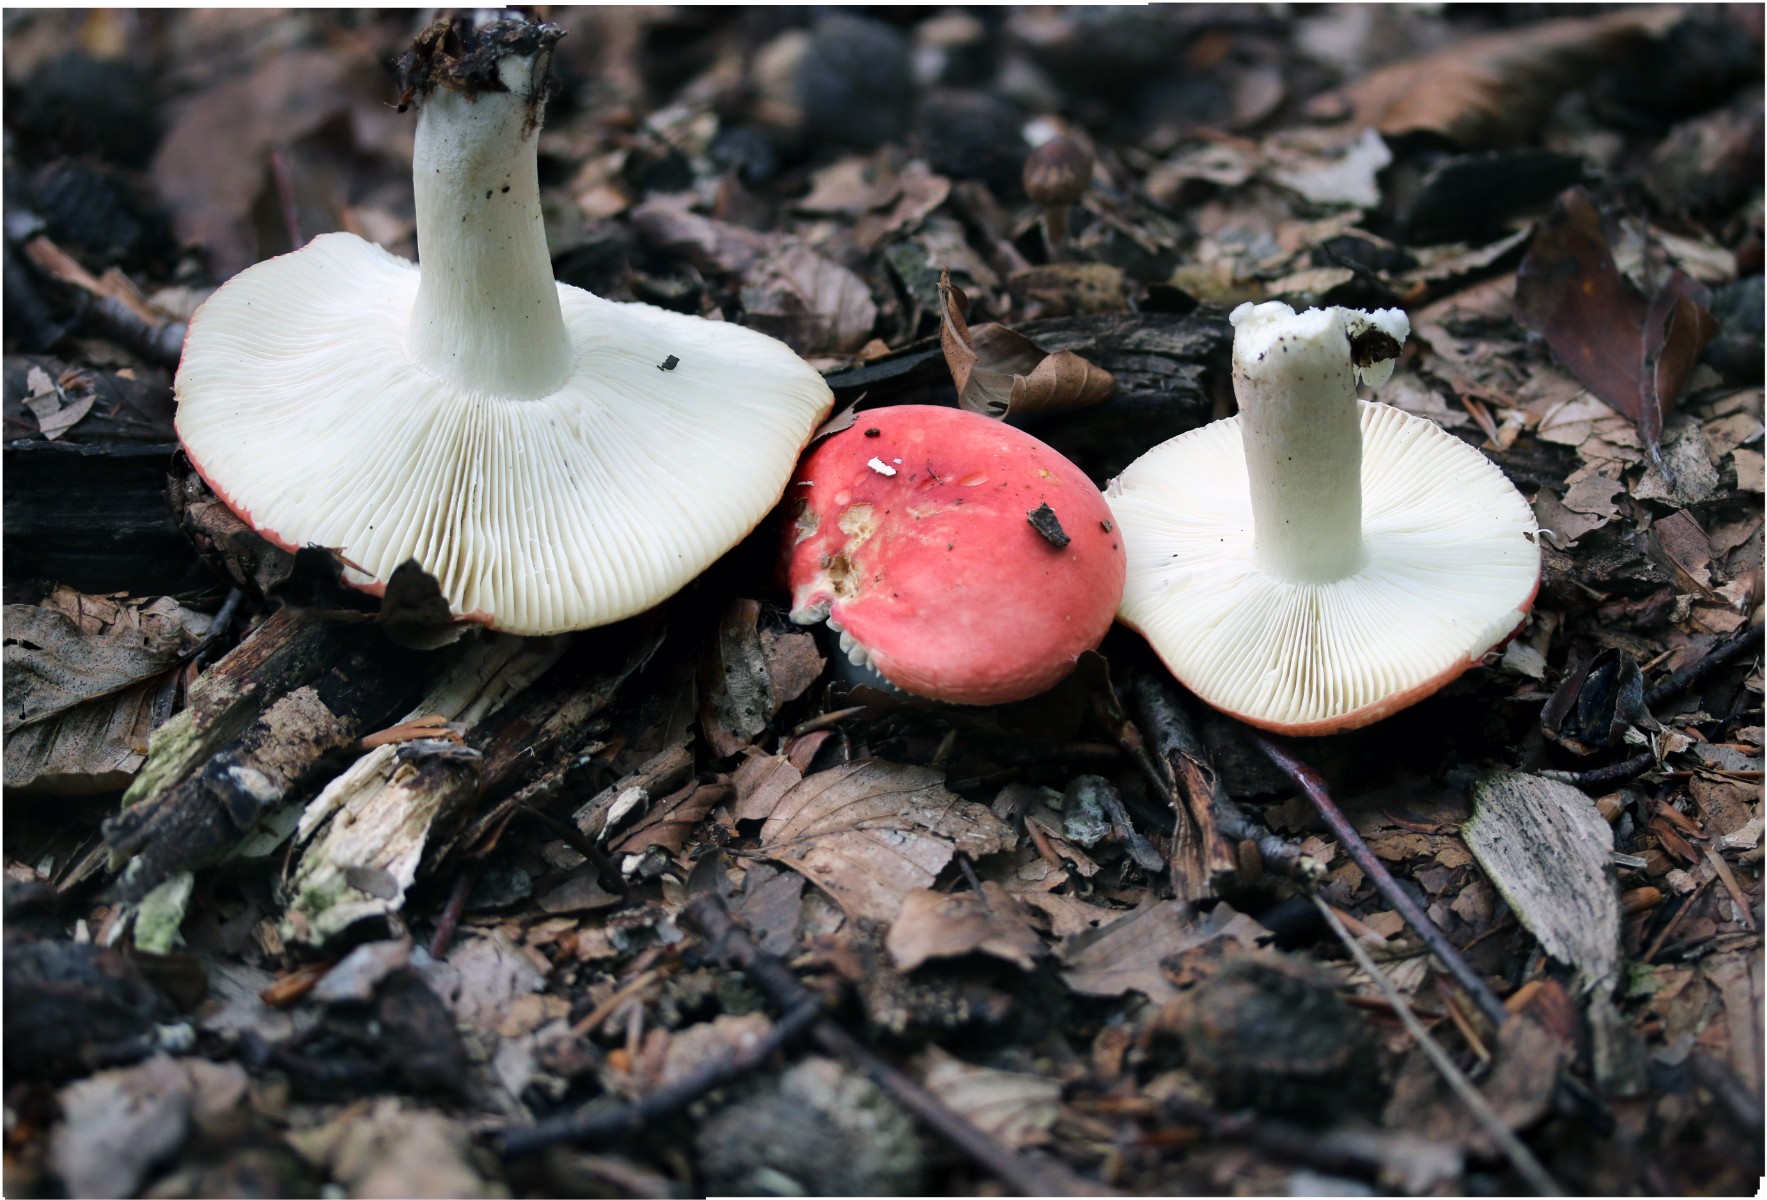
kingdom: Fungi
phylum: Basidiomycota
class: Agaricomycetes
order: Russulales
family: Russulaceae
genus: Russula
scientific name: Russula nobilis
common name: lille gift-skørhat
